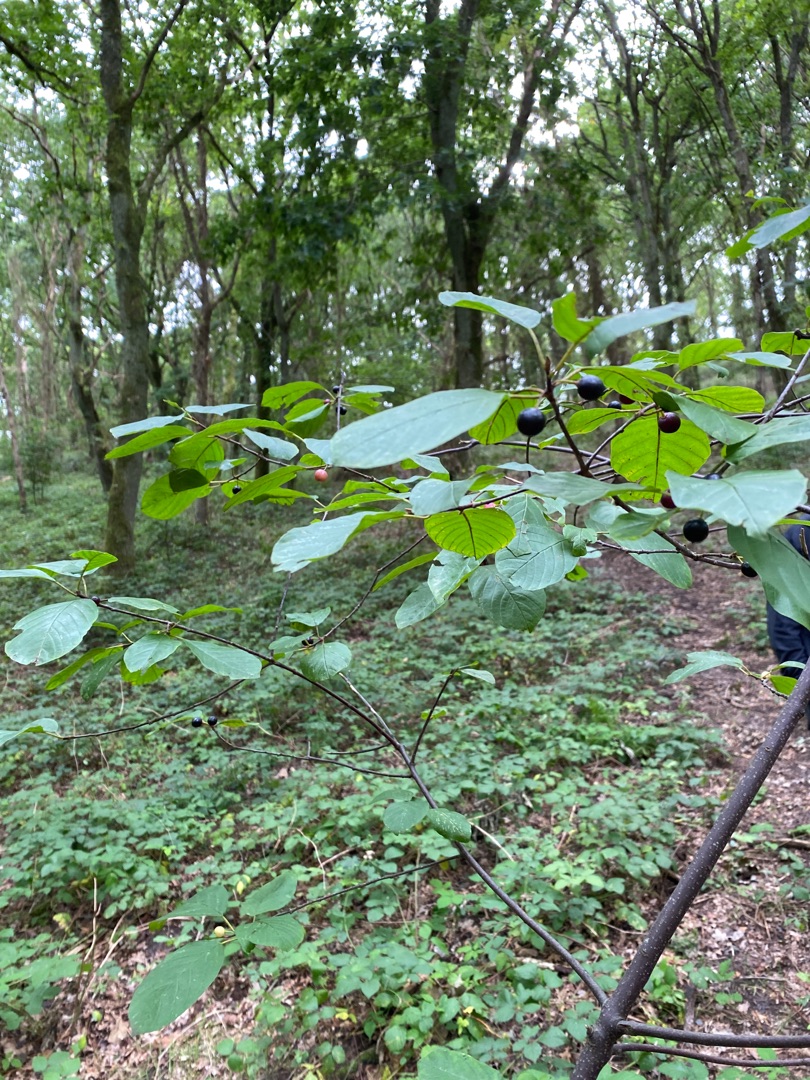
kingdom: Plantae
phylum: Tracheophyta
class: Magnoliopsida
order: Rosales
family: Rhamnaceae
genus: Frangula
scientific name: Frangula alnus
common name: Tørst
